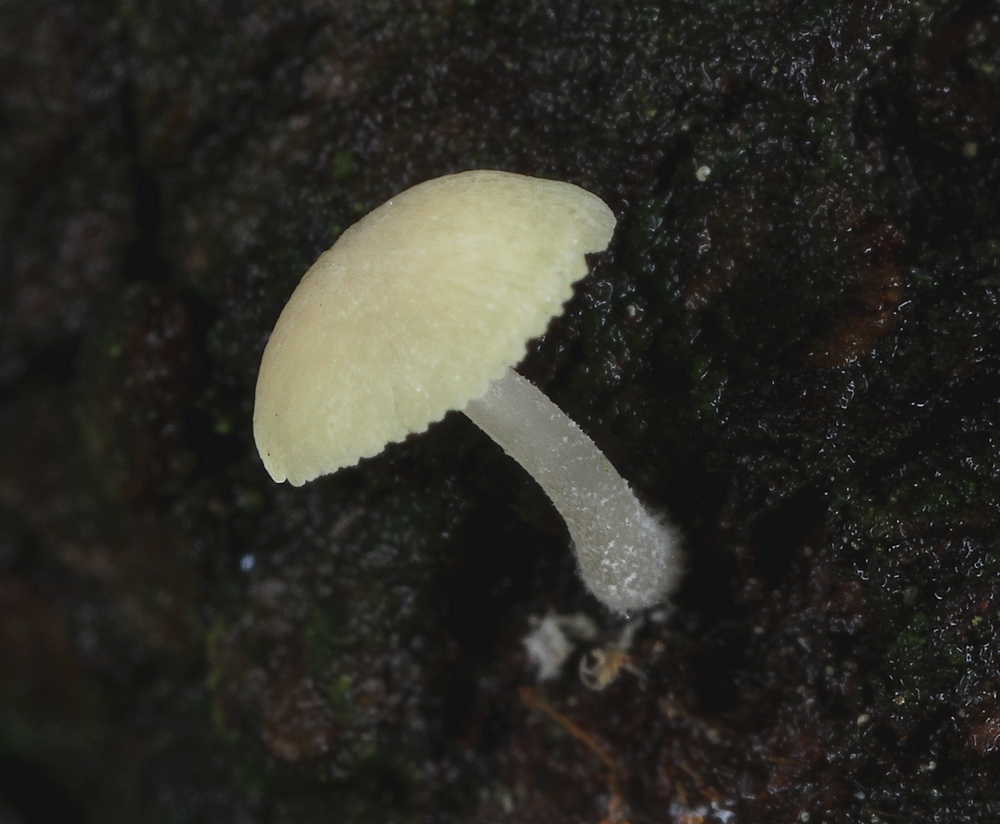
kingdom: Fungi
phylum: Basidiomycota
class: Agaricomycetes
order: Agaricales
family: Mycenaceae
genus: Mycena
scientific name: Mycena xantholeuca
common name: cremehvid huesvamp
